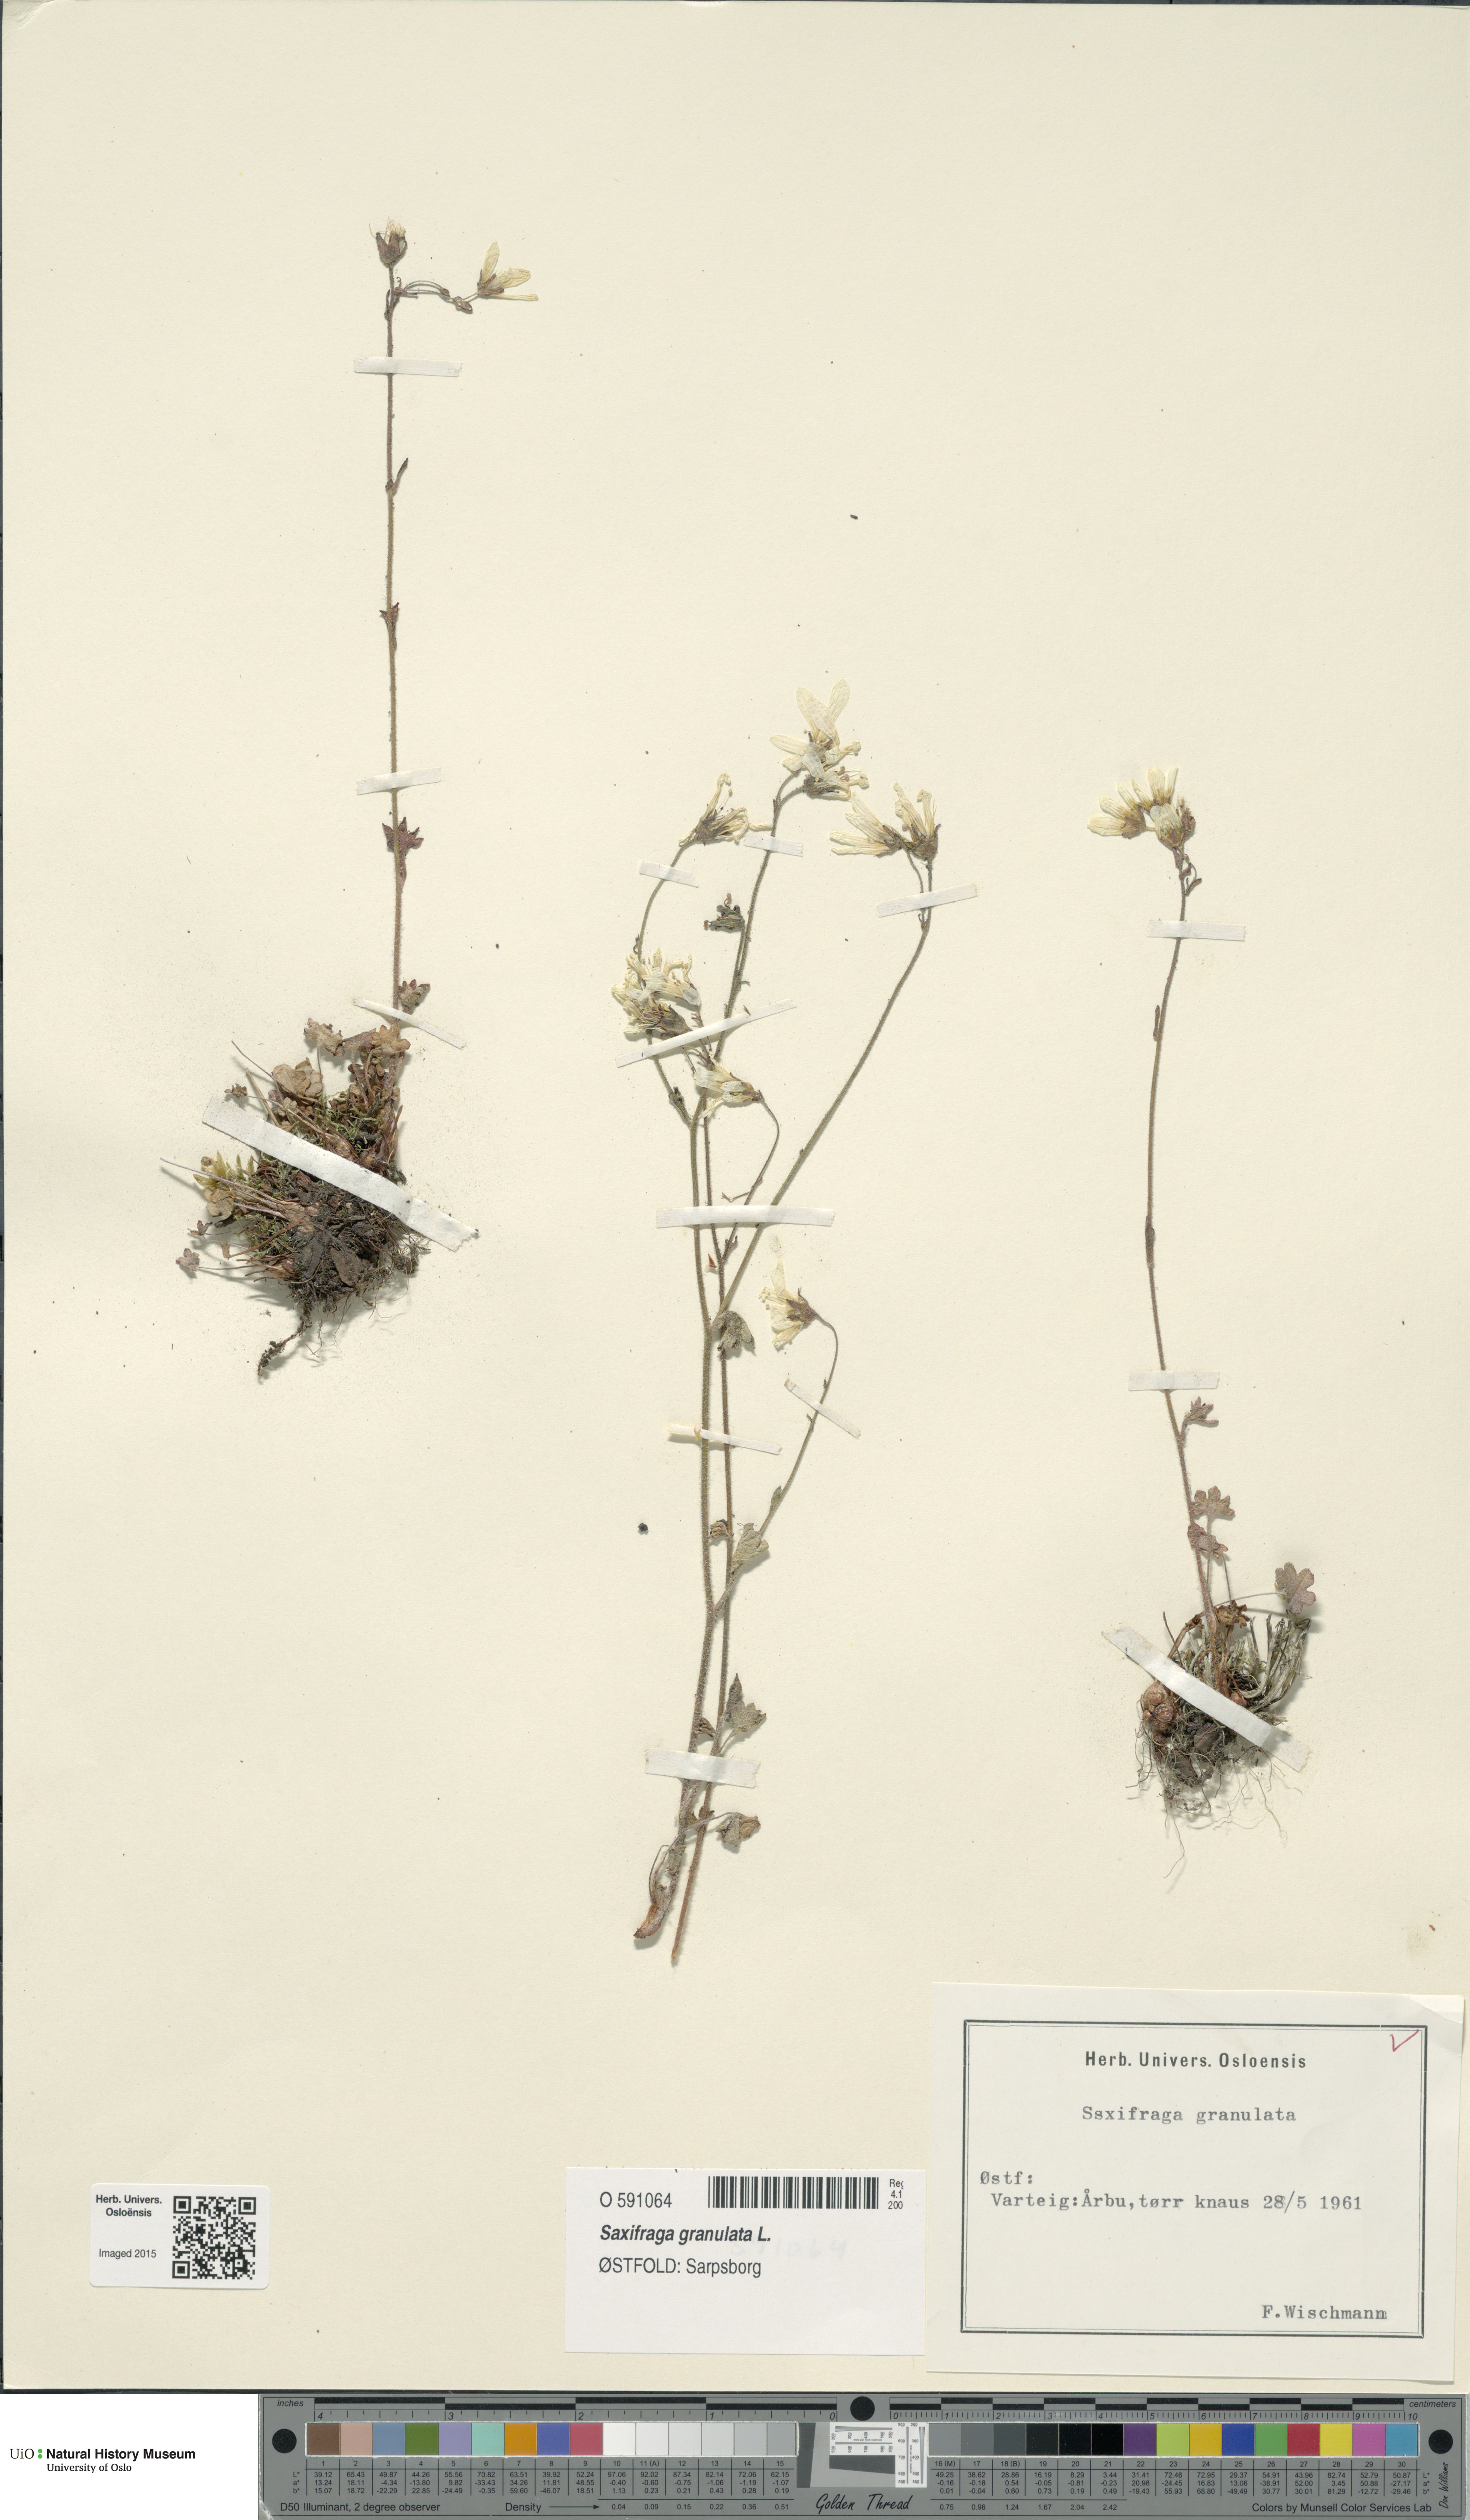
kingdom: Plantae
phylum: Tracheophyta
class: Magnoliopsida
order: Saxifragales
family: Saxifragaceae
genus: Saxifraga
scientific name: Saxifraga granulata
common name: Meadow saxifrage
